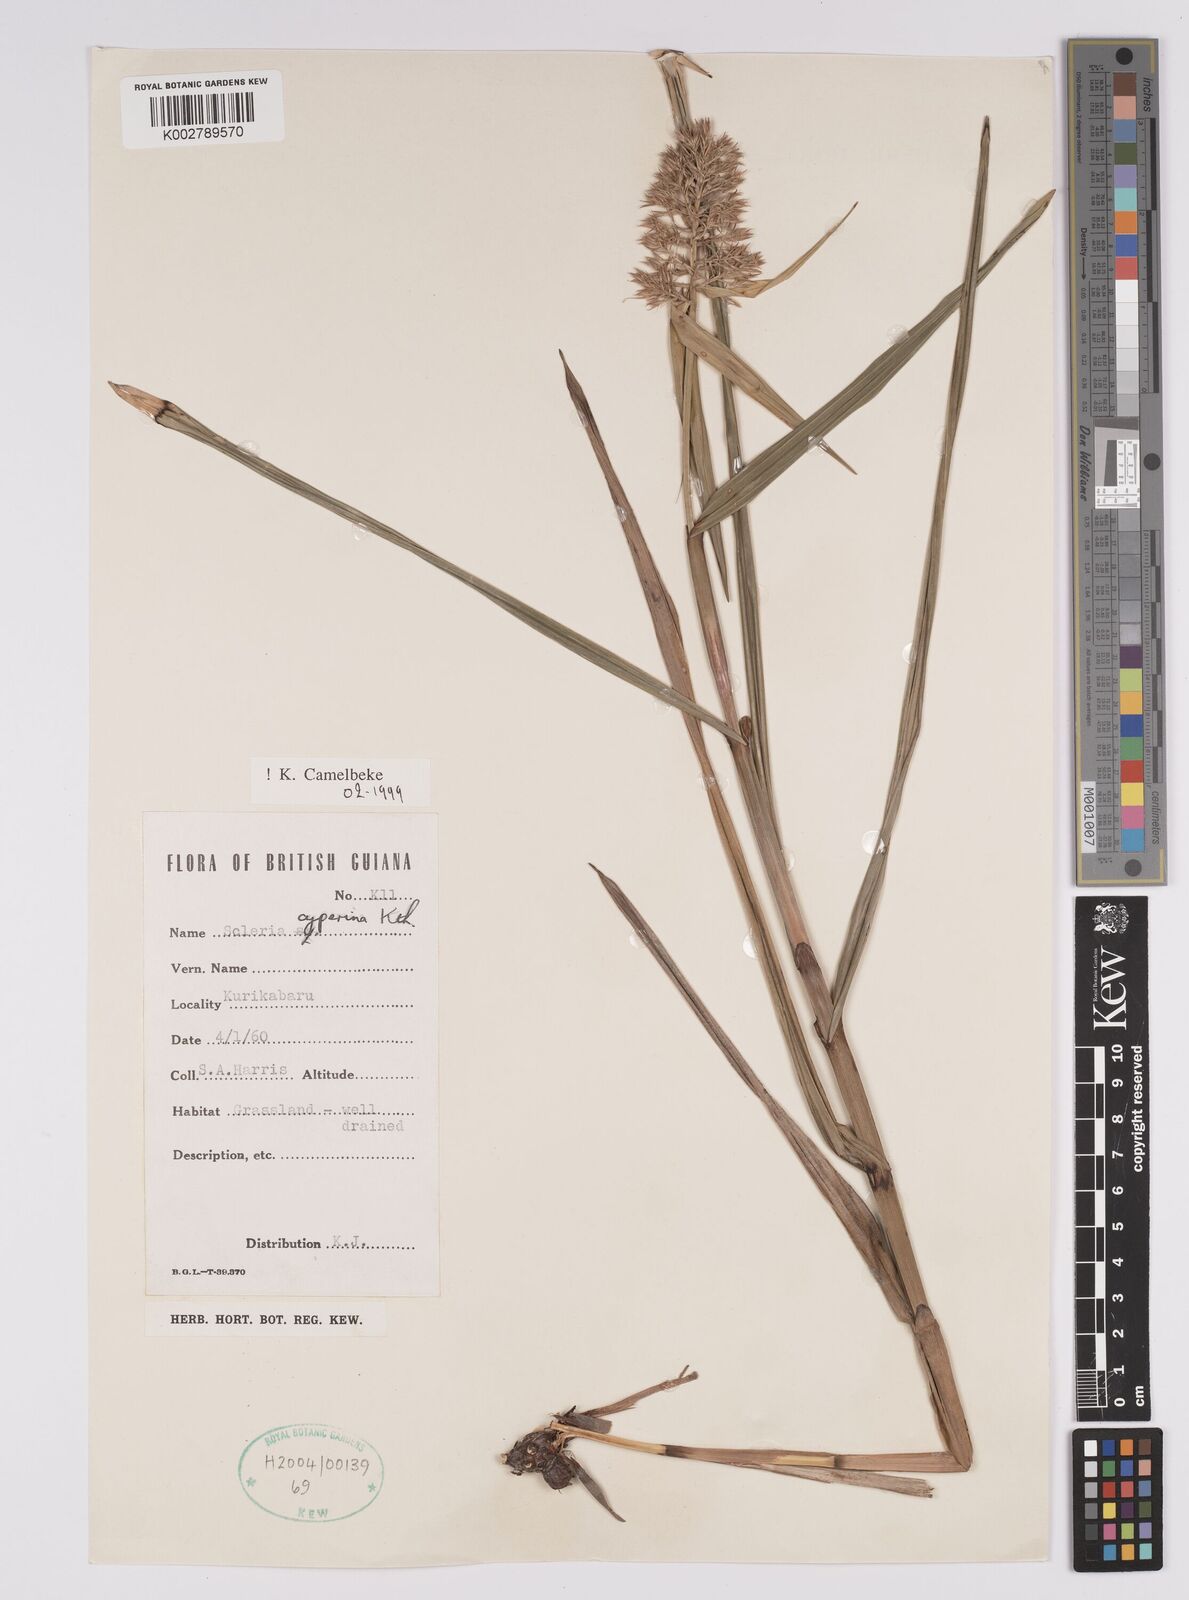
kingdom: Plantae
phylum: Tracheophyta
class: Liliopsida
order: Poales
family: Cyperaceae
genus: Scleria
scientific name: Scleria cyperina
